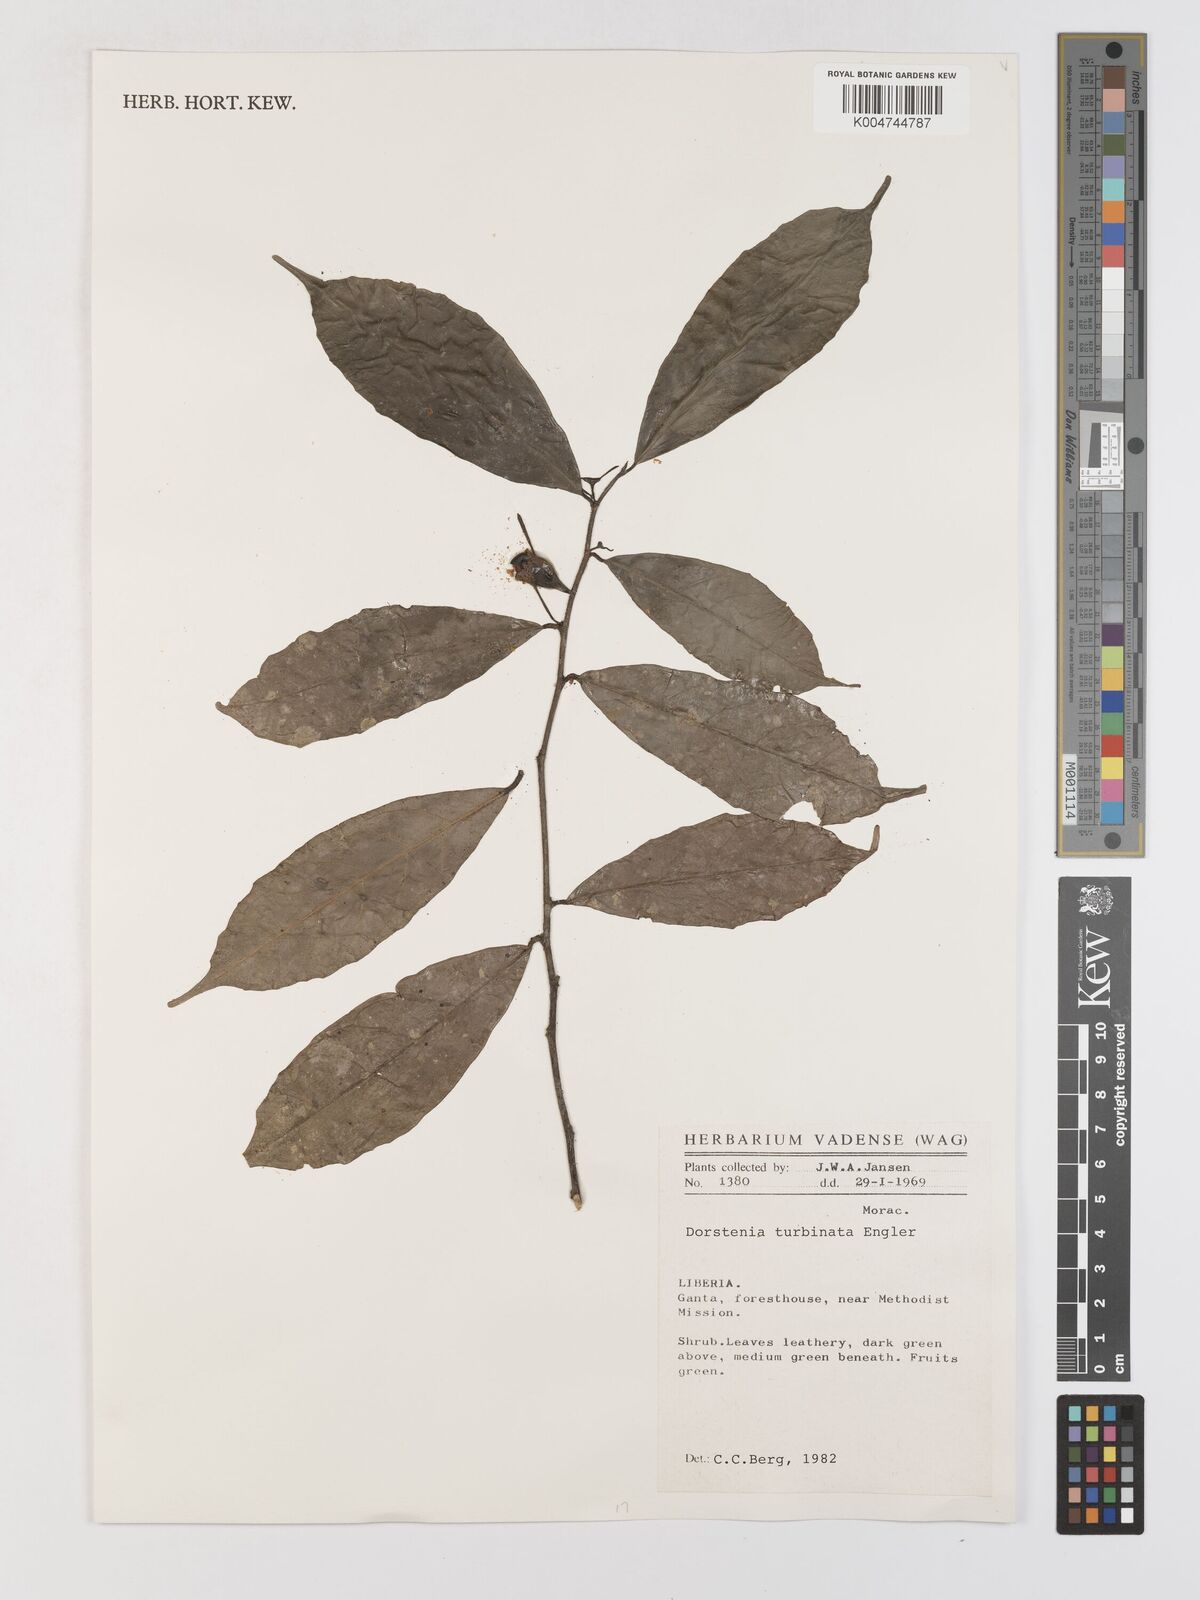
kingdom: Plantae
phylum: Tracheophyta
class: Magnoliopsida
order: Rosales
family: Moraceae
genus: Hijmania
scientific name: Hijmania turbinata
